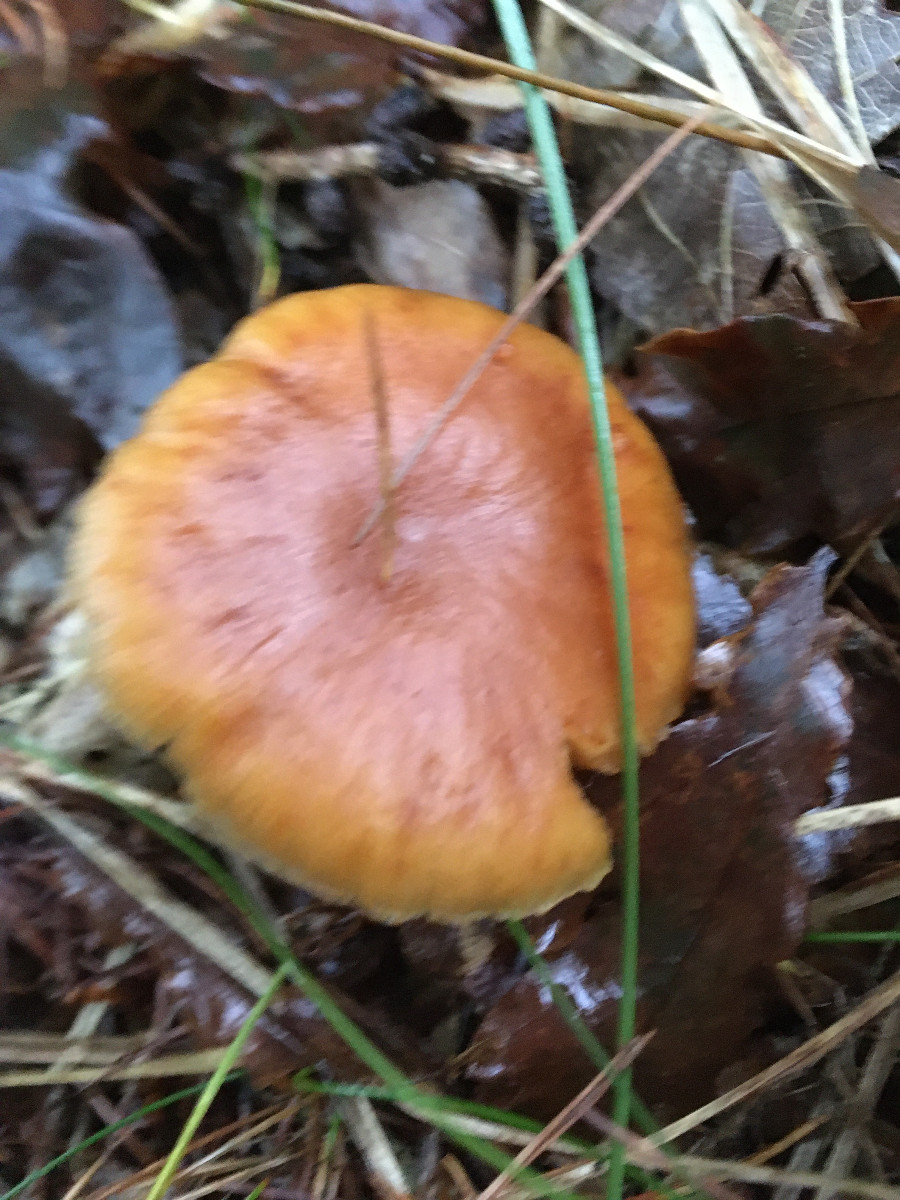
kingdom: Fungi
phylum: Basidiomycota
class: Agaricomycetes
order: Agaricales
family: Hymenogastraceae
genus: Gymnopilus
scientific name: Gymnopilus penetrans
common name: plettet flammehat
